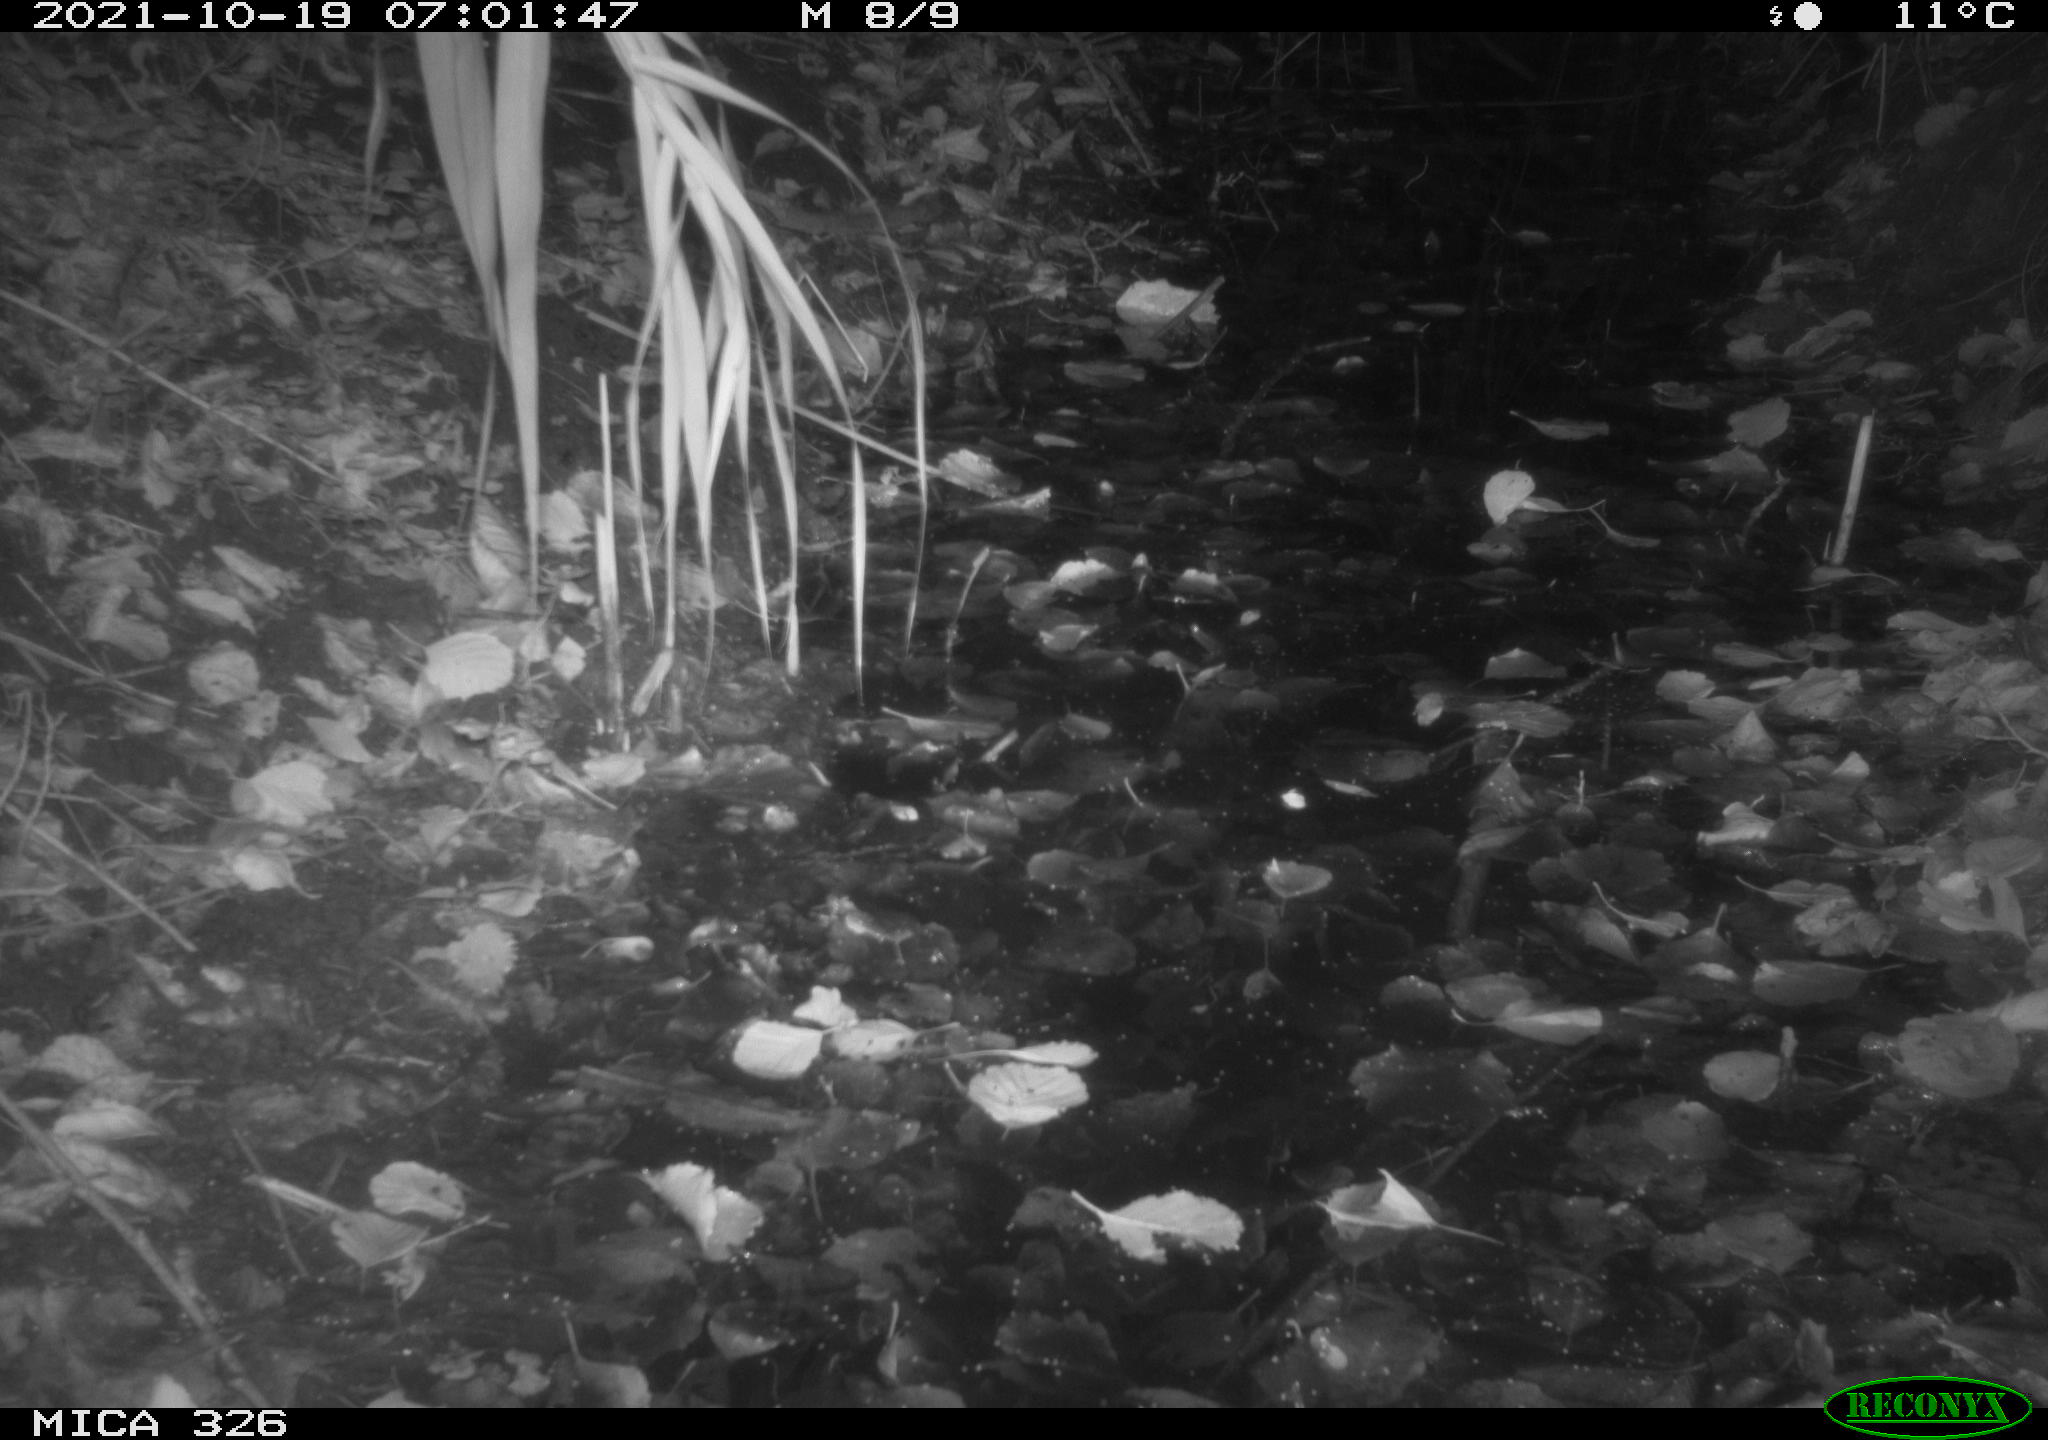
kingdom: Animalia
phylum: Chordata
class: Mammalia
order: Rodentia
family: Muridae
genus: Rattus
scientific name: Rattus norvegicus
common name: Brown rat
